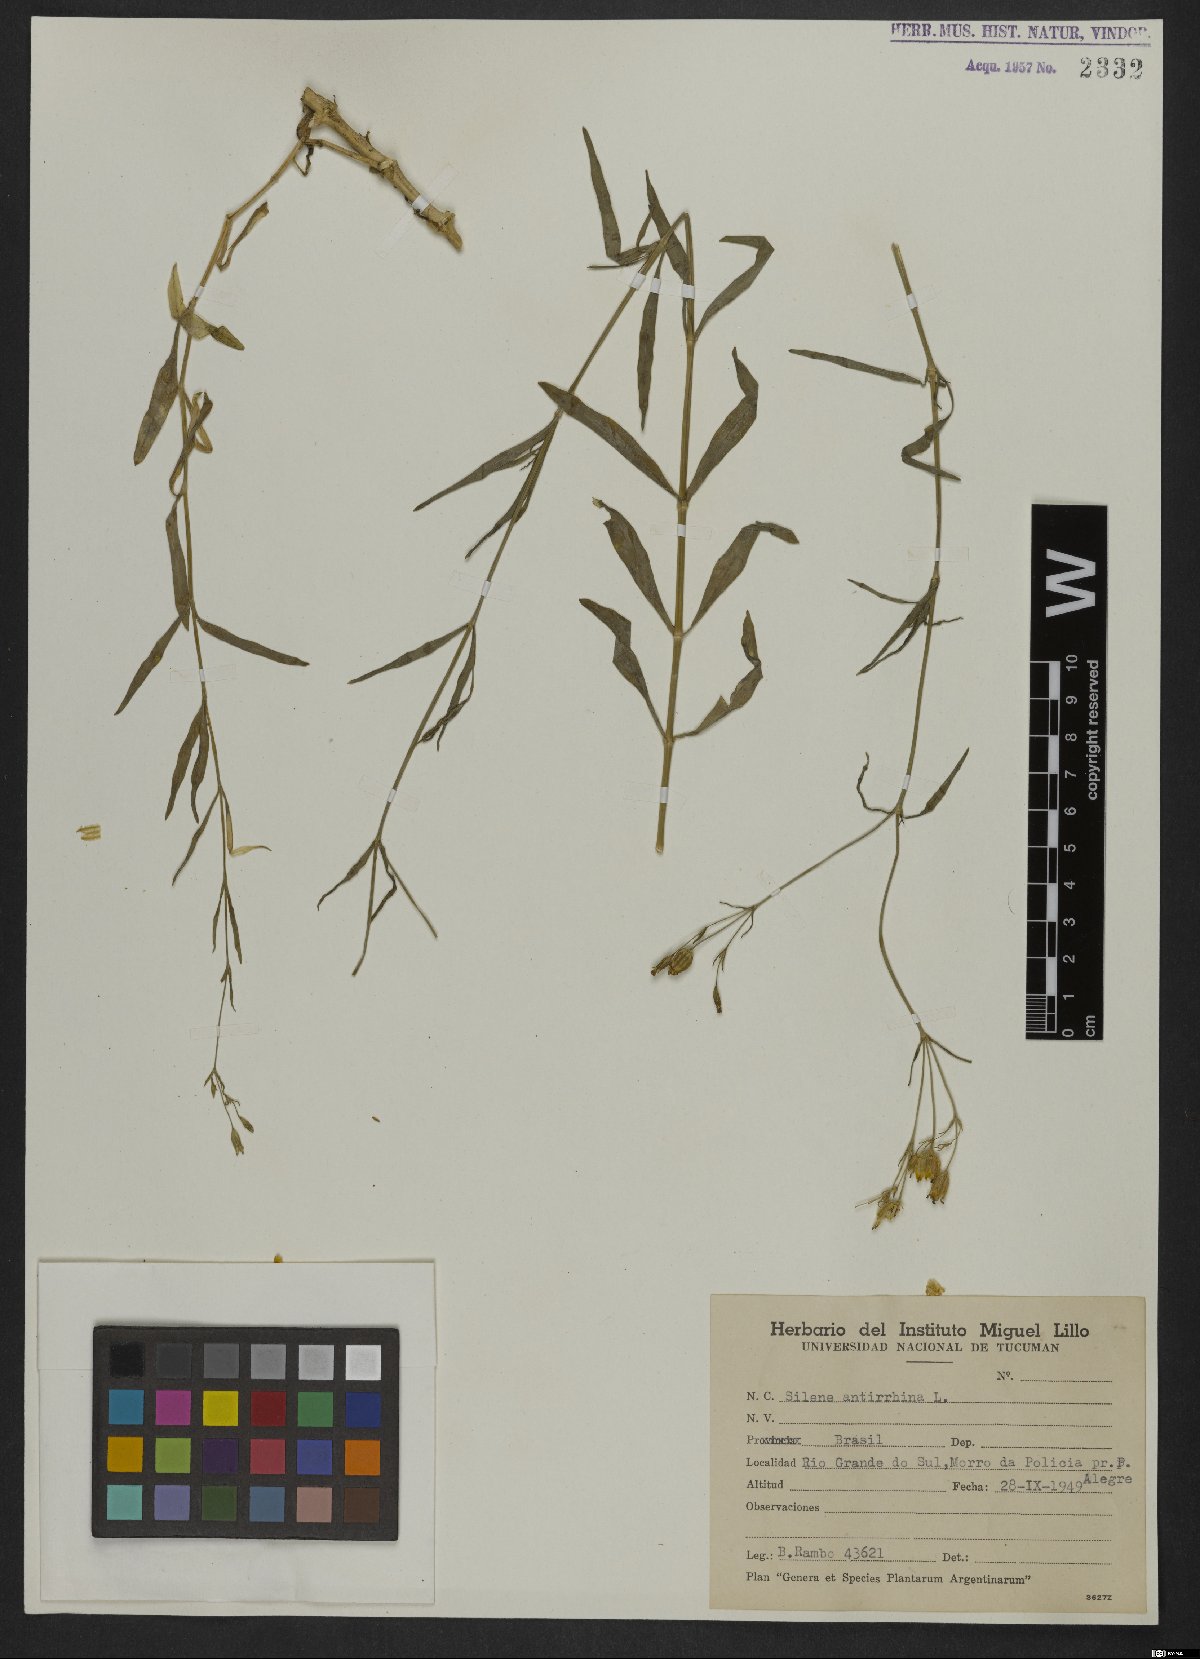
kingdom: Plantae
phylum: Tracheophyta
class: Magnoliopsida
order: Caryophyllales
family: Caryophyllaceae
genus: Silene
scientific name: Silene antirrhina
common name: Sleepy catchfly
